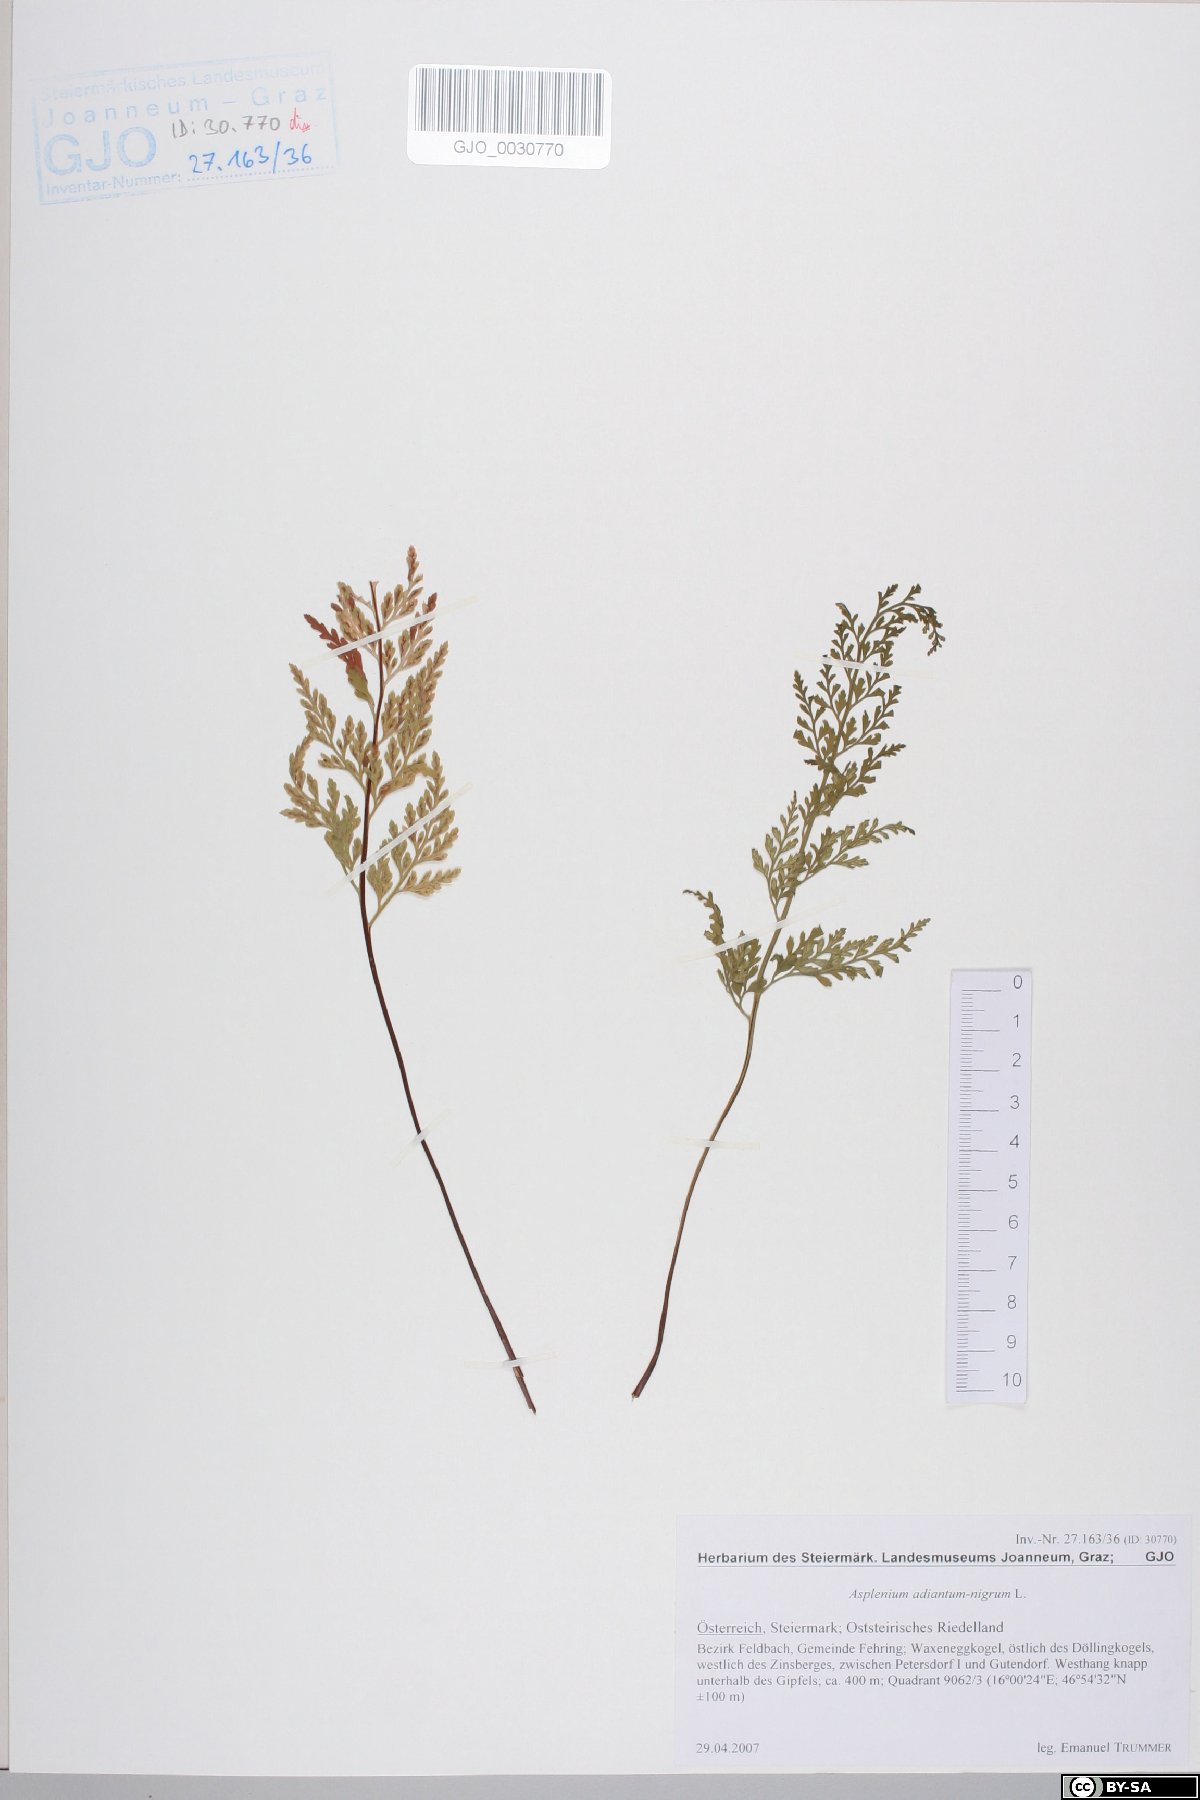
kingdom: Plantae
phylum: Tracheophyta
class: Polypodiopsida
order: Polypodiales
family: Aspleniaceae
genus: Asplenium
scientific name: Asplenium adiantum-nigrum
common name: Black spleenwort
